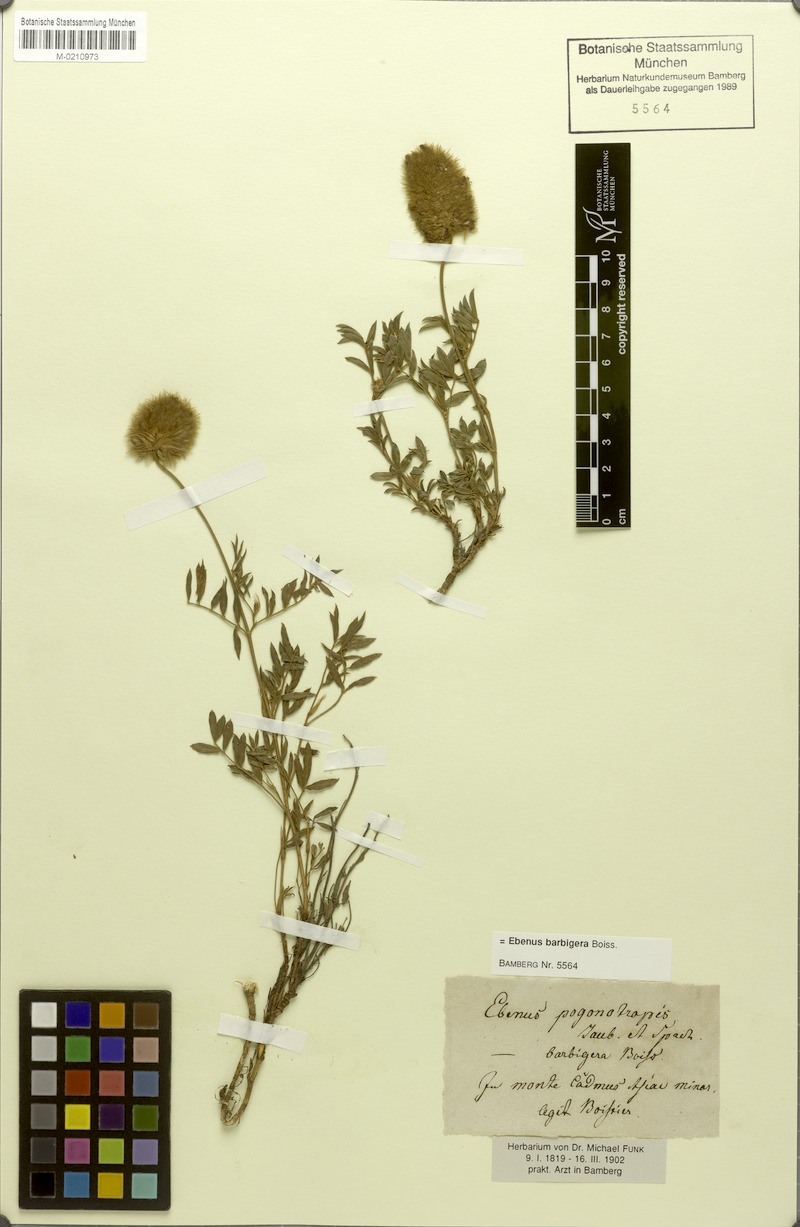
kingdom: Plantae
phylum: Tracheophyta
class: Magnoliopsida
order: Fabales
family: Fabaceae
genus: Ebenus
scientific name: Ebenus barbigera
